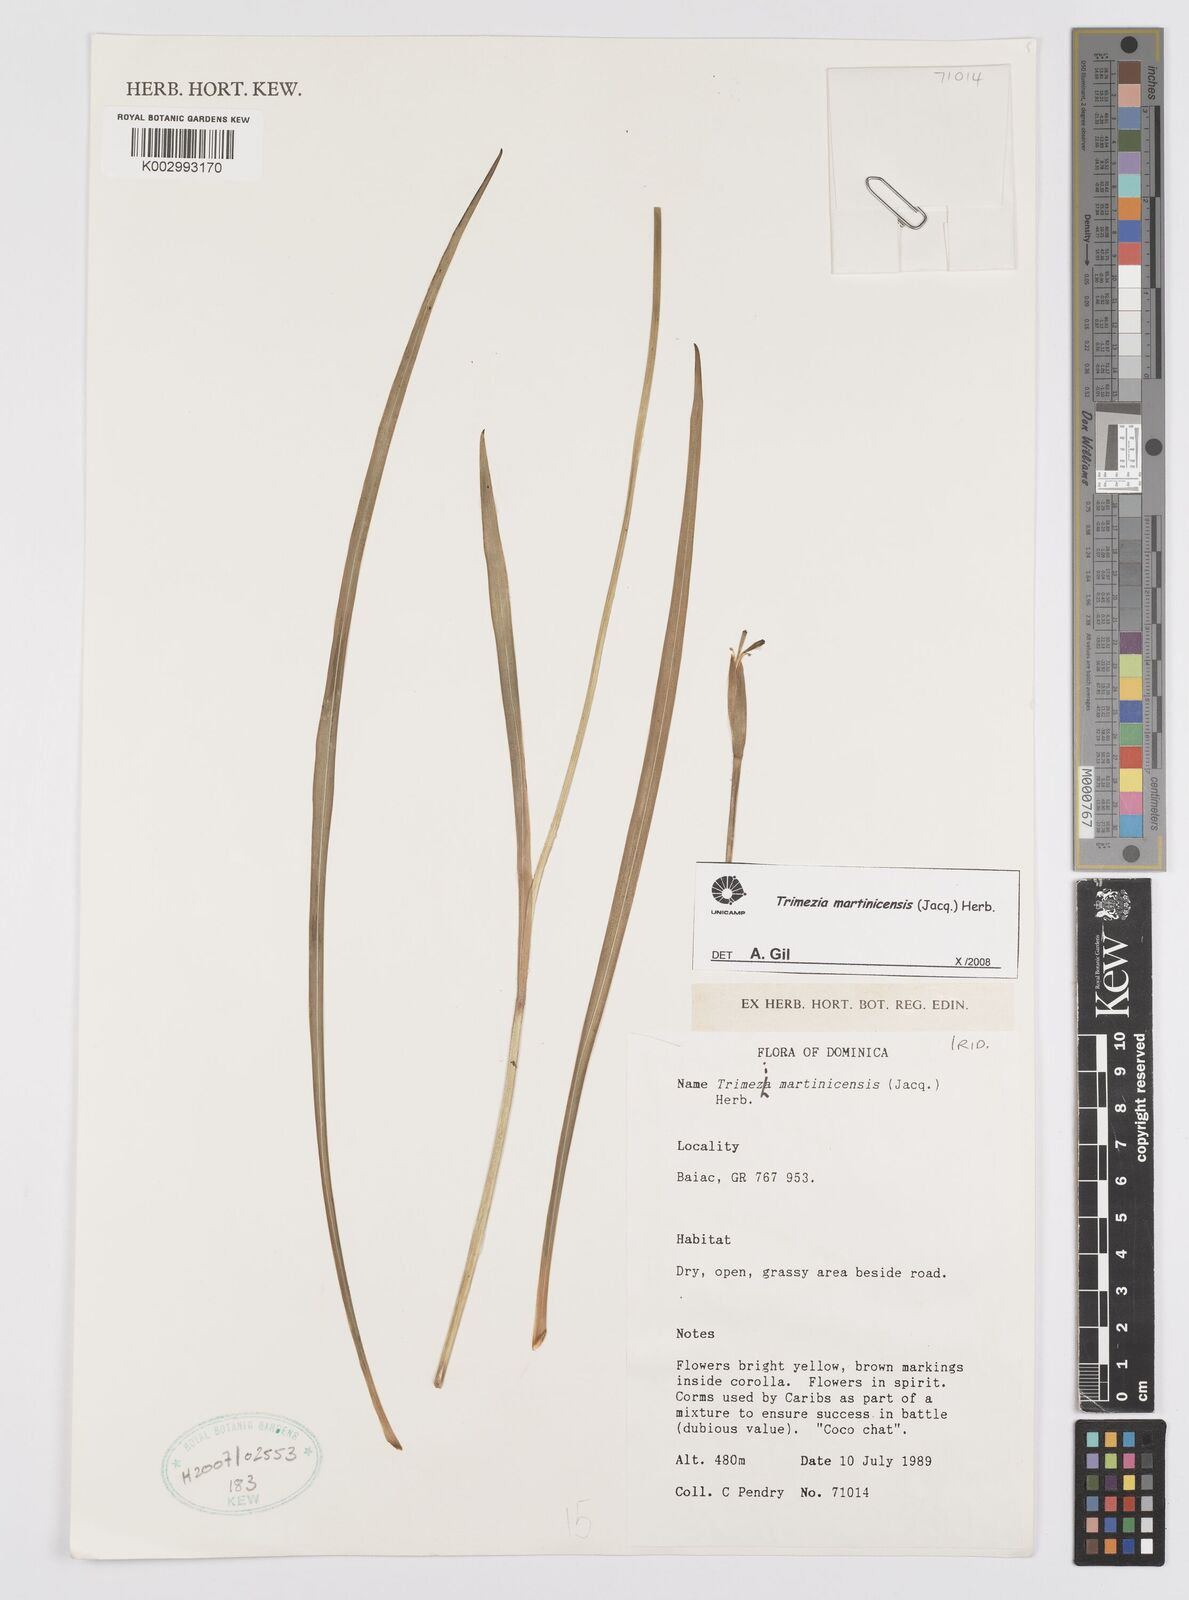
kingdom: Plantae
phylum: Tracheophyta
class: Liliopsida
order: Asparagales
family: Iridaceae
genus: Trimezia
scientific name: Trimezia martinicensis
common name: Martinique trimezia
